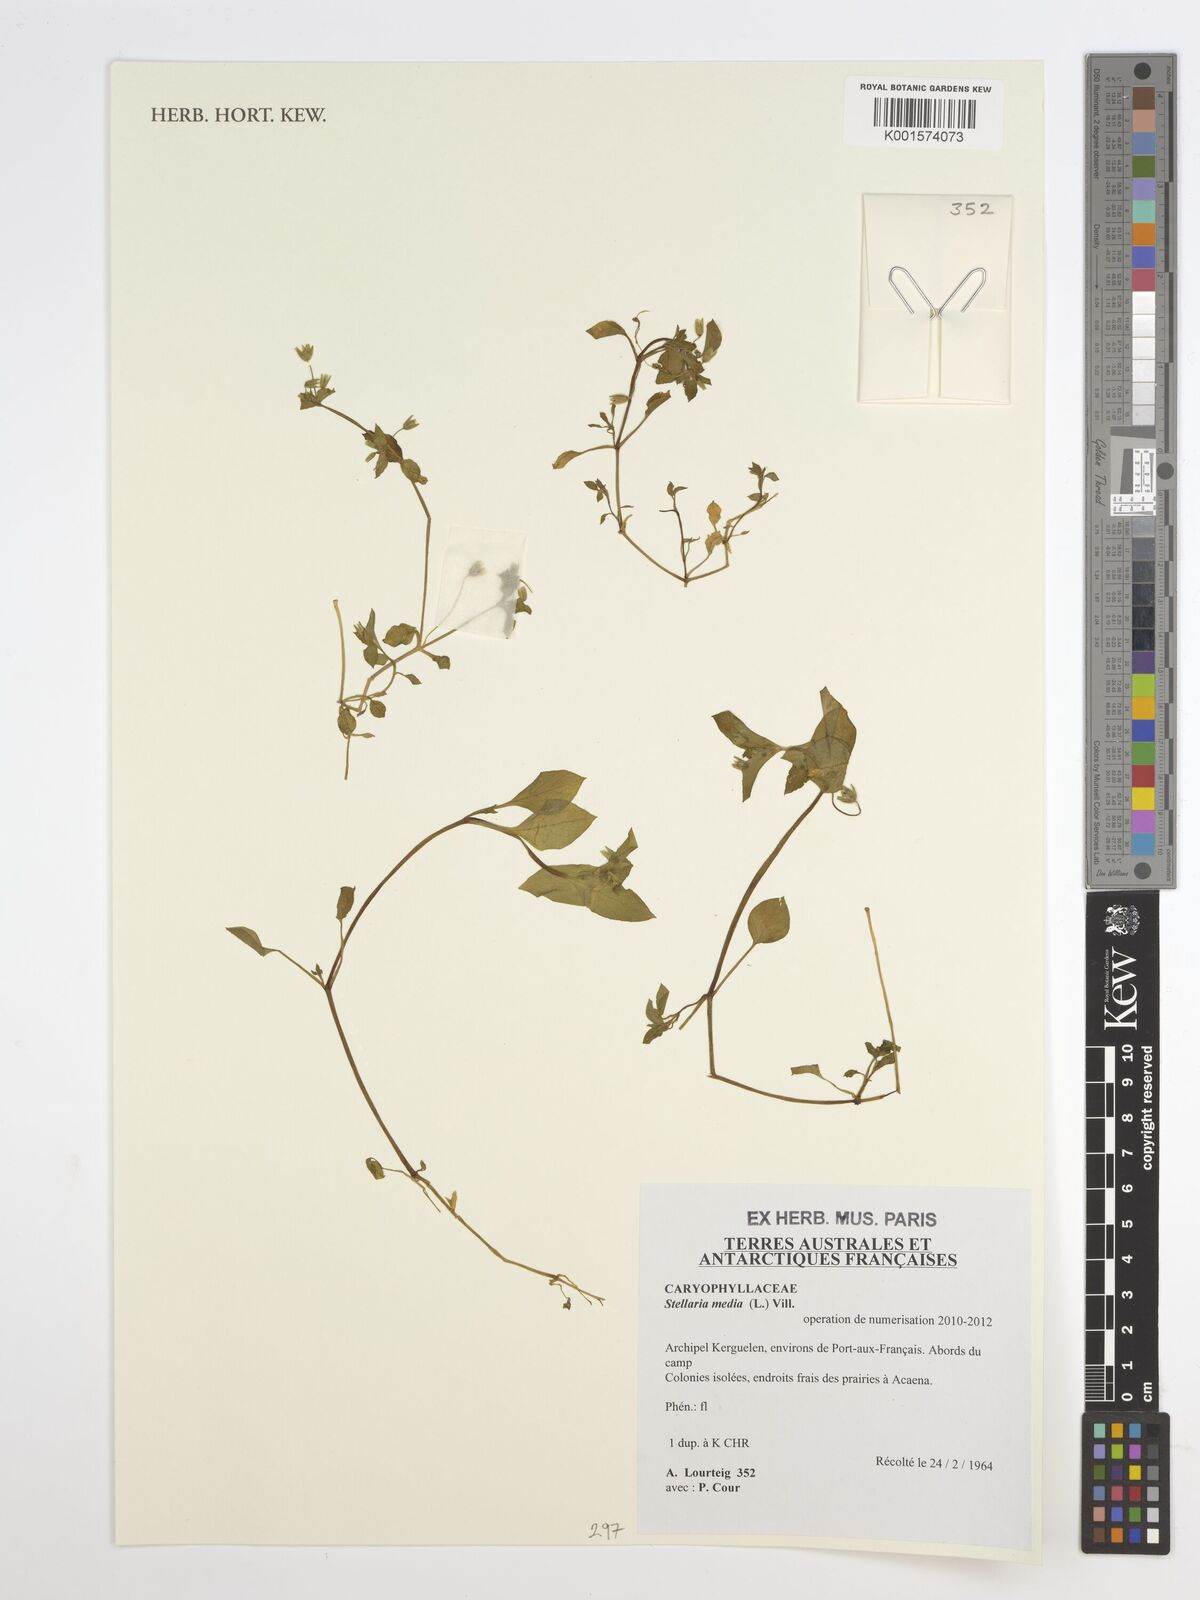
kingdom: Plantae
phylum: Tracheophyta
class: Magnoliopsida
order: Caryophyllales
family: Caryophyllaceae
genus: Stellaria
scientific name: Stellaria media
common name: Common chickweed
